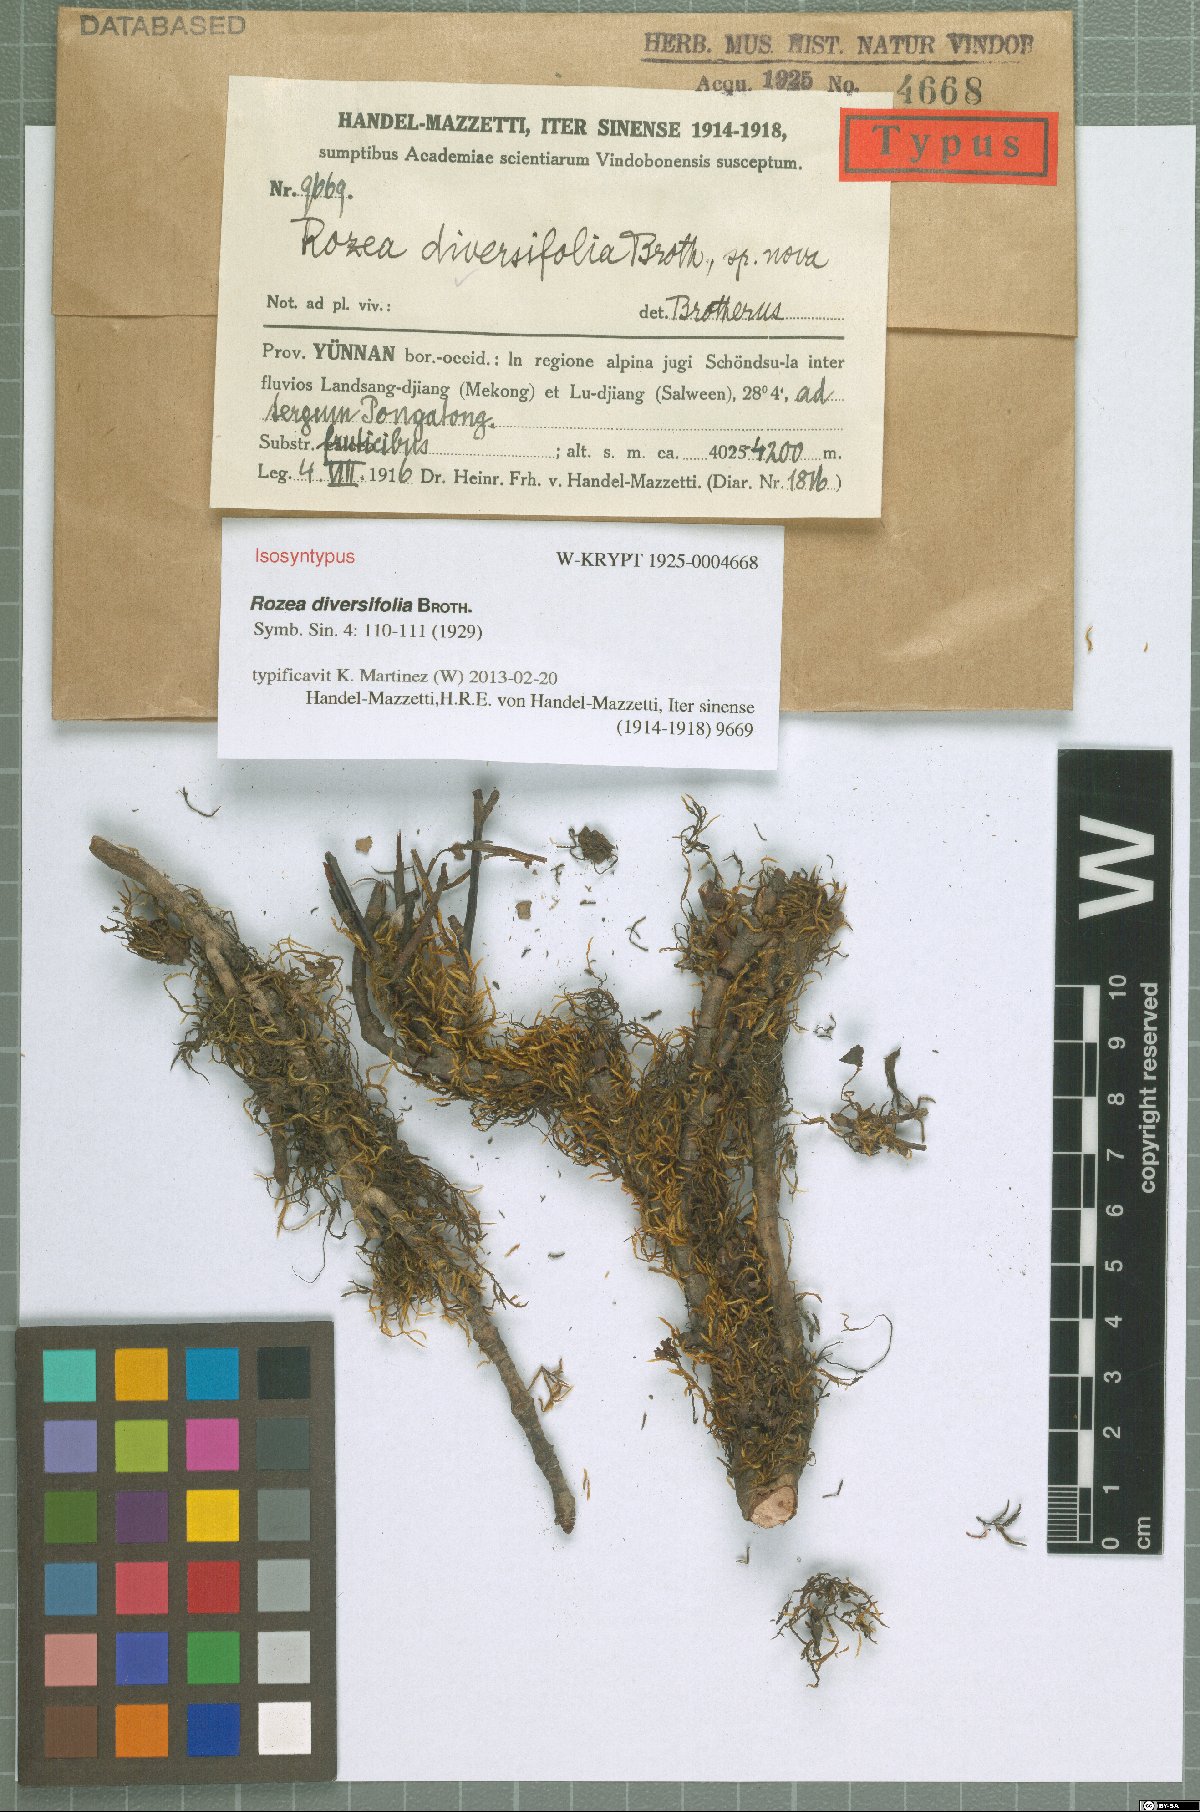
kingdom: Plantae
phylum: Bryophyta
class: Bryopsida
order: Hypnales
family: Leskeaceae
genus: Rozea
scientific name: Rozea diversifolia
